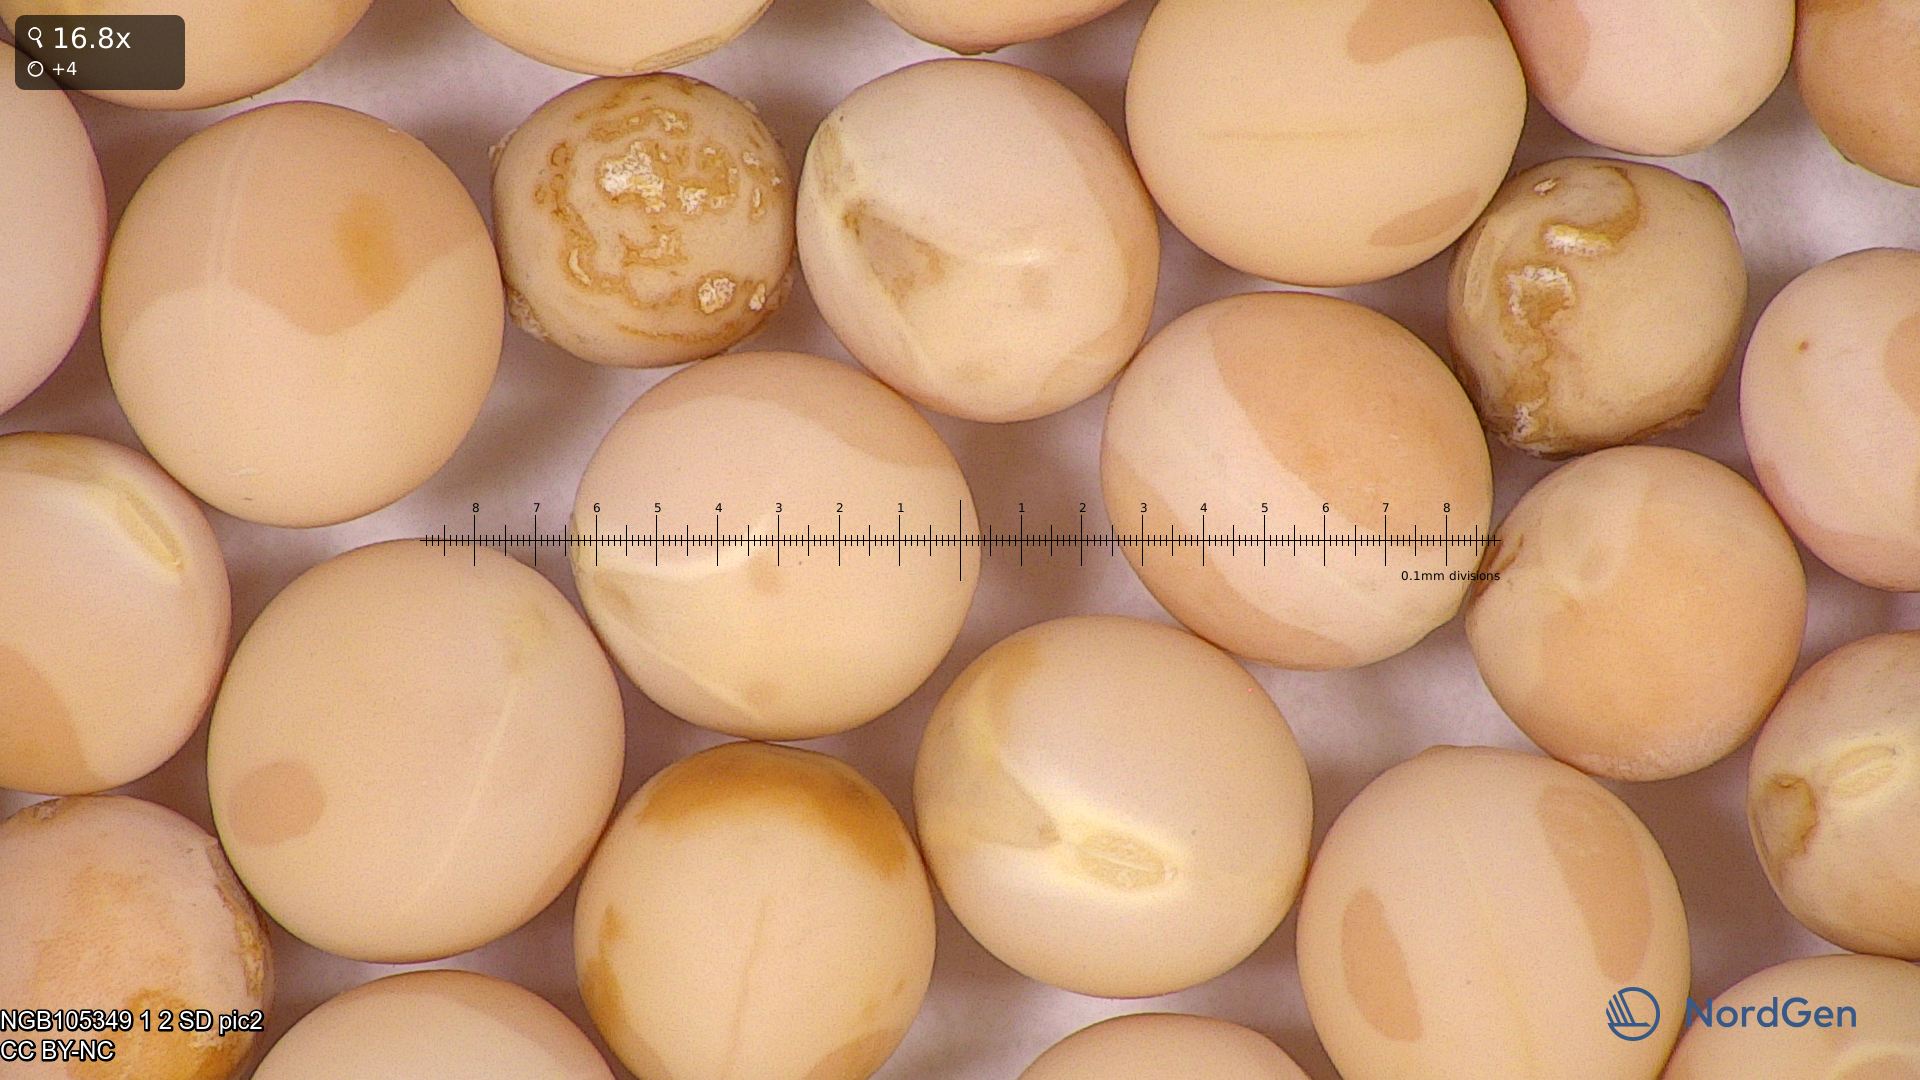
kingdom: Plantae
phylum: Tracheophyta
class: Magnoliopsida
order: Fabales
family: Fabaceae
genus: Lathyrus
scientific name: Lathyrus oleraceus
